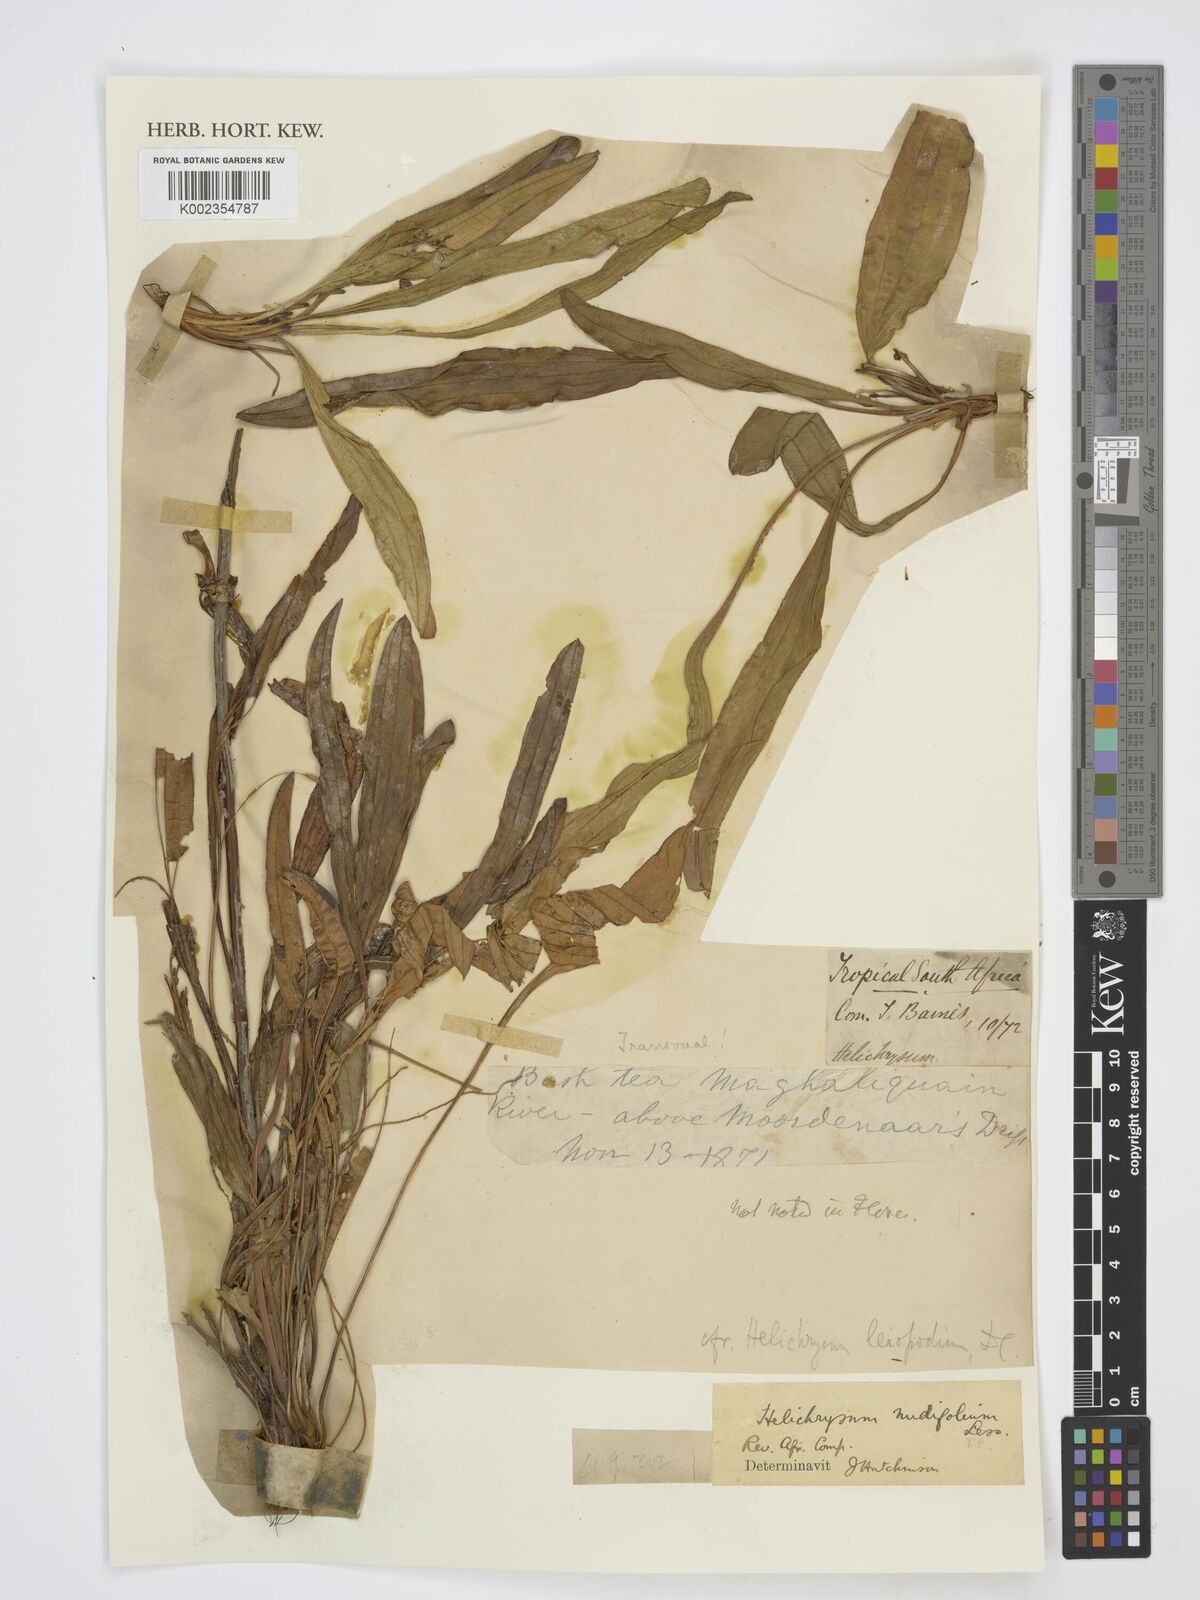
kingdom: Plantae
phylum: Tracheophyta
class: Magnoliopsida
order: Asterales
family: Asteraceae
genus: Helichrysum
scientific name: Helichrysum nudifolium
